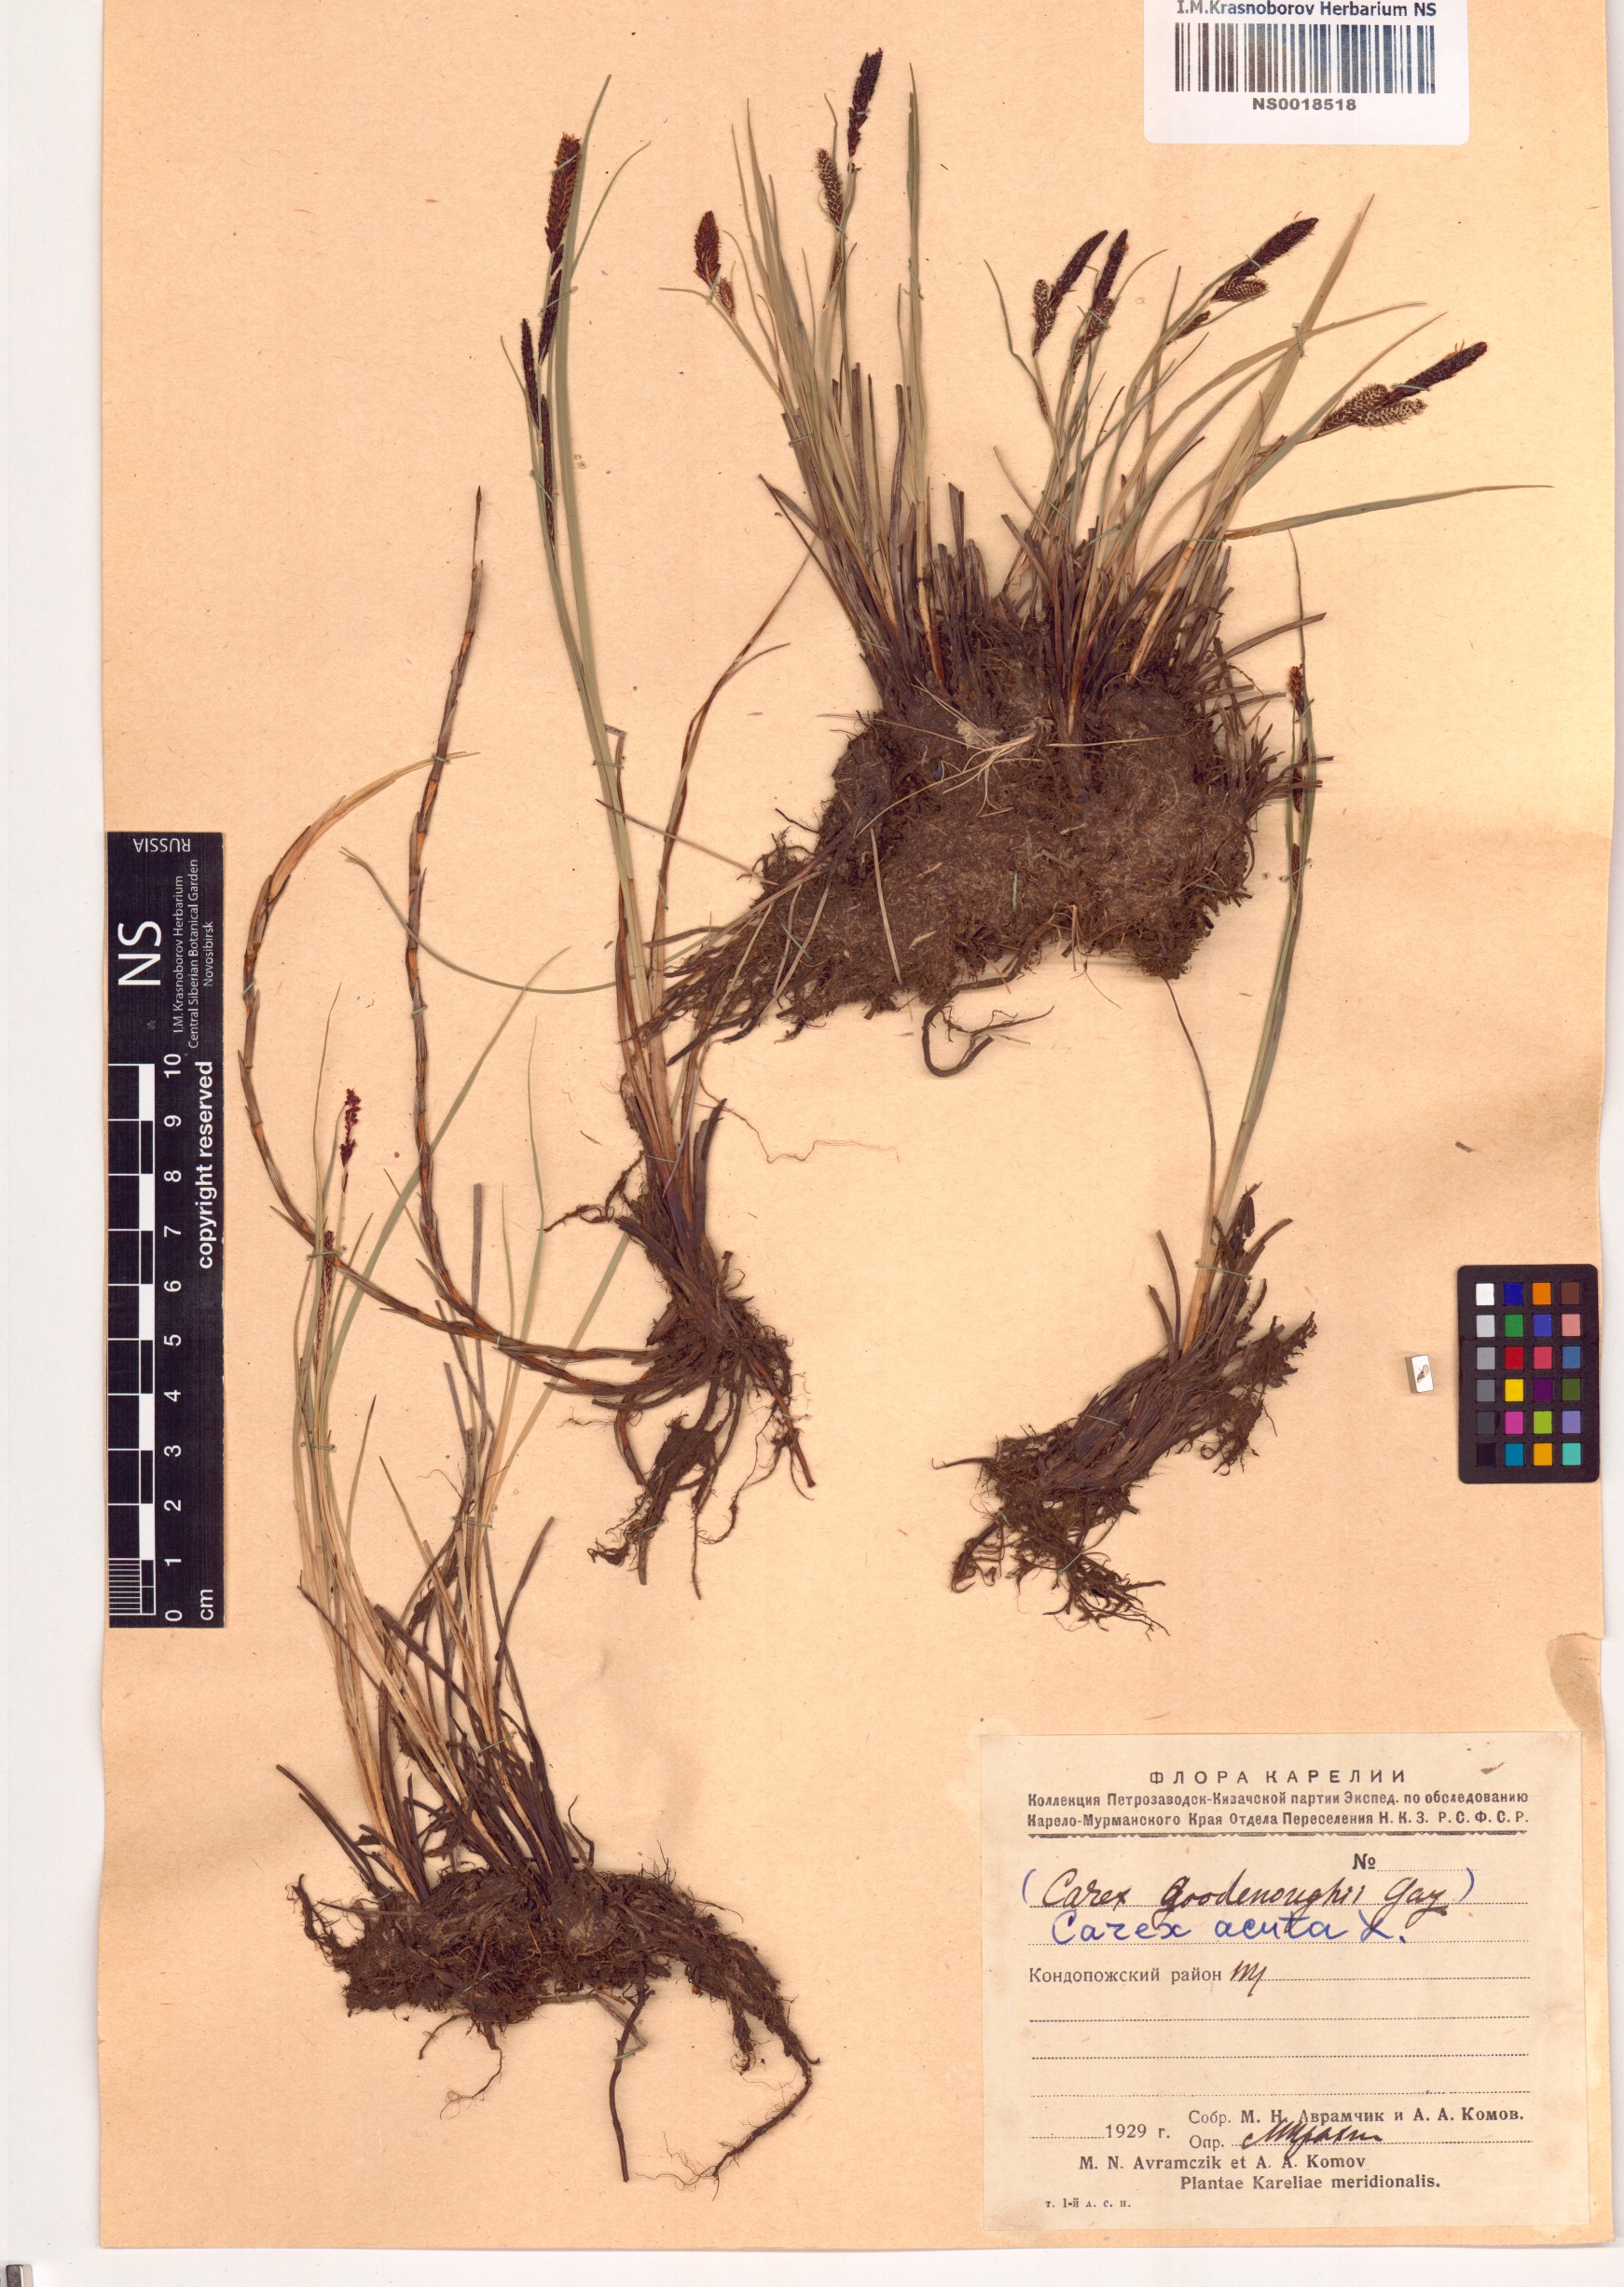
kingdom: Plantae
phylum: Tracheophyta
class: Liliopsida
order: Poales
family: Cyperaceae
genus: Carex
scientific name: Carex acuta
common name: Slender tufted-sedge
